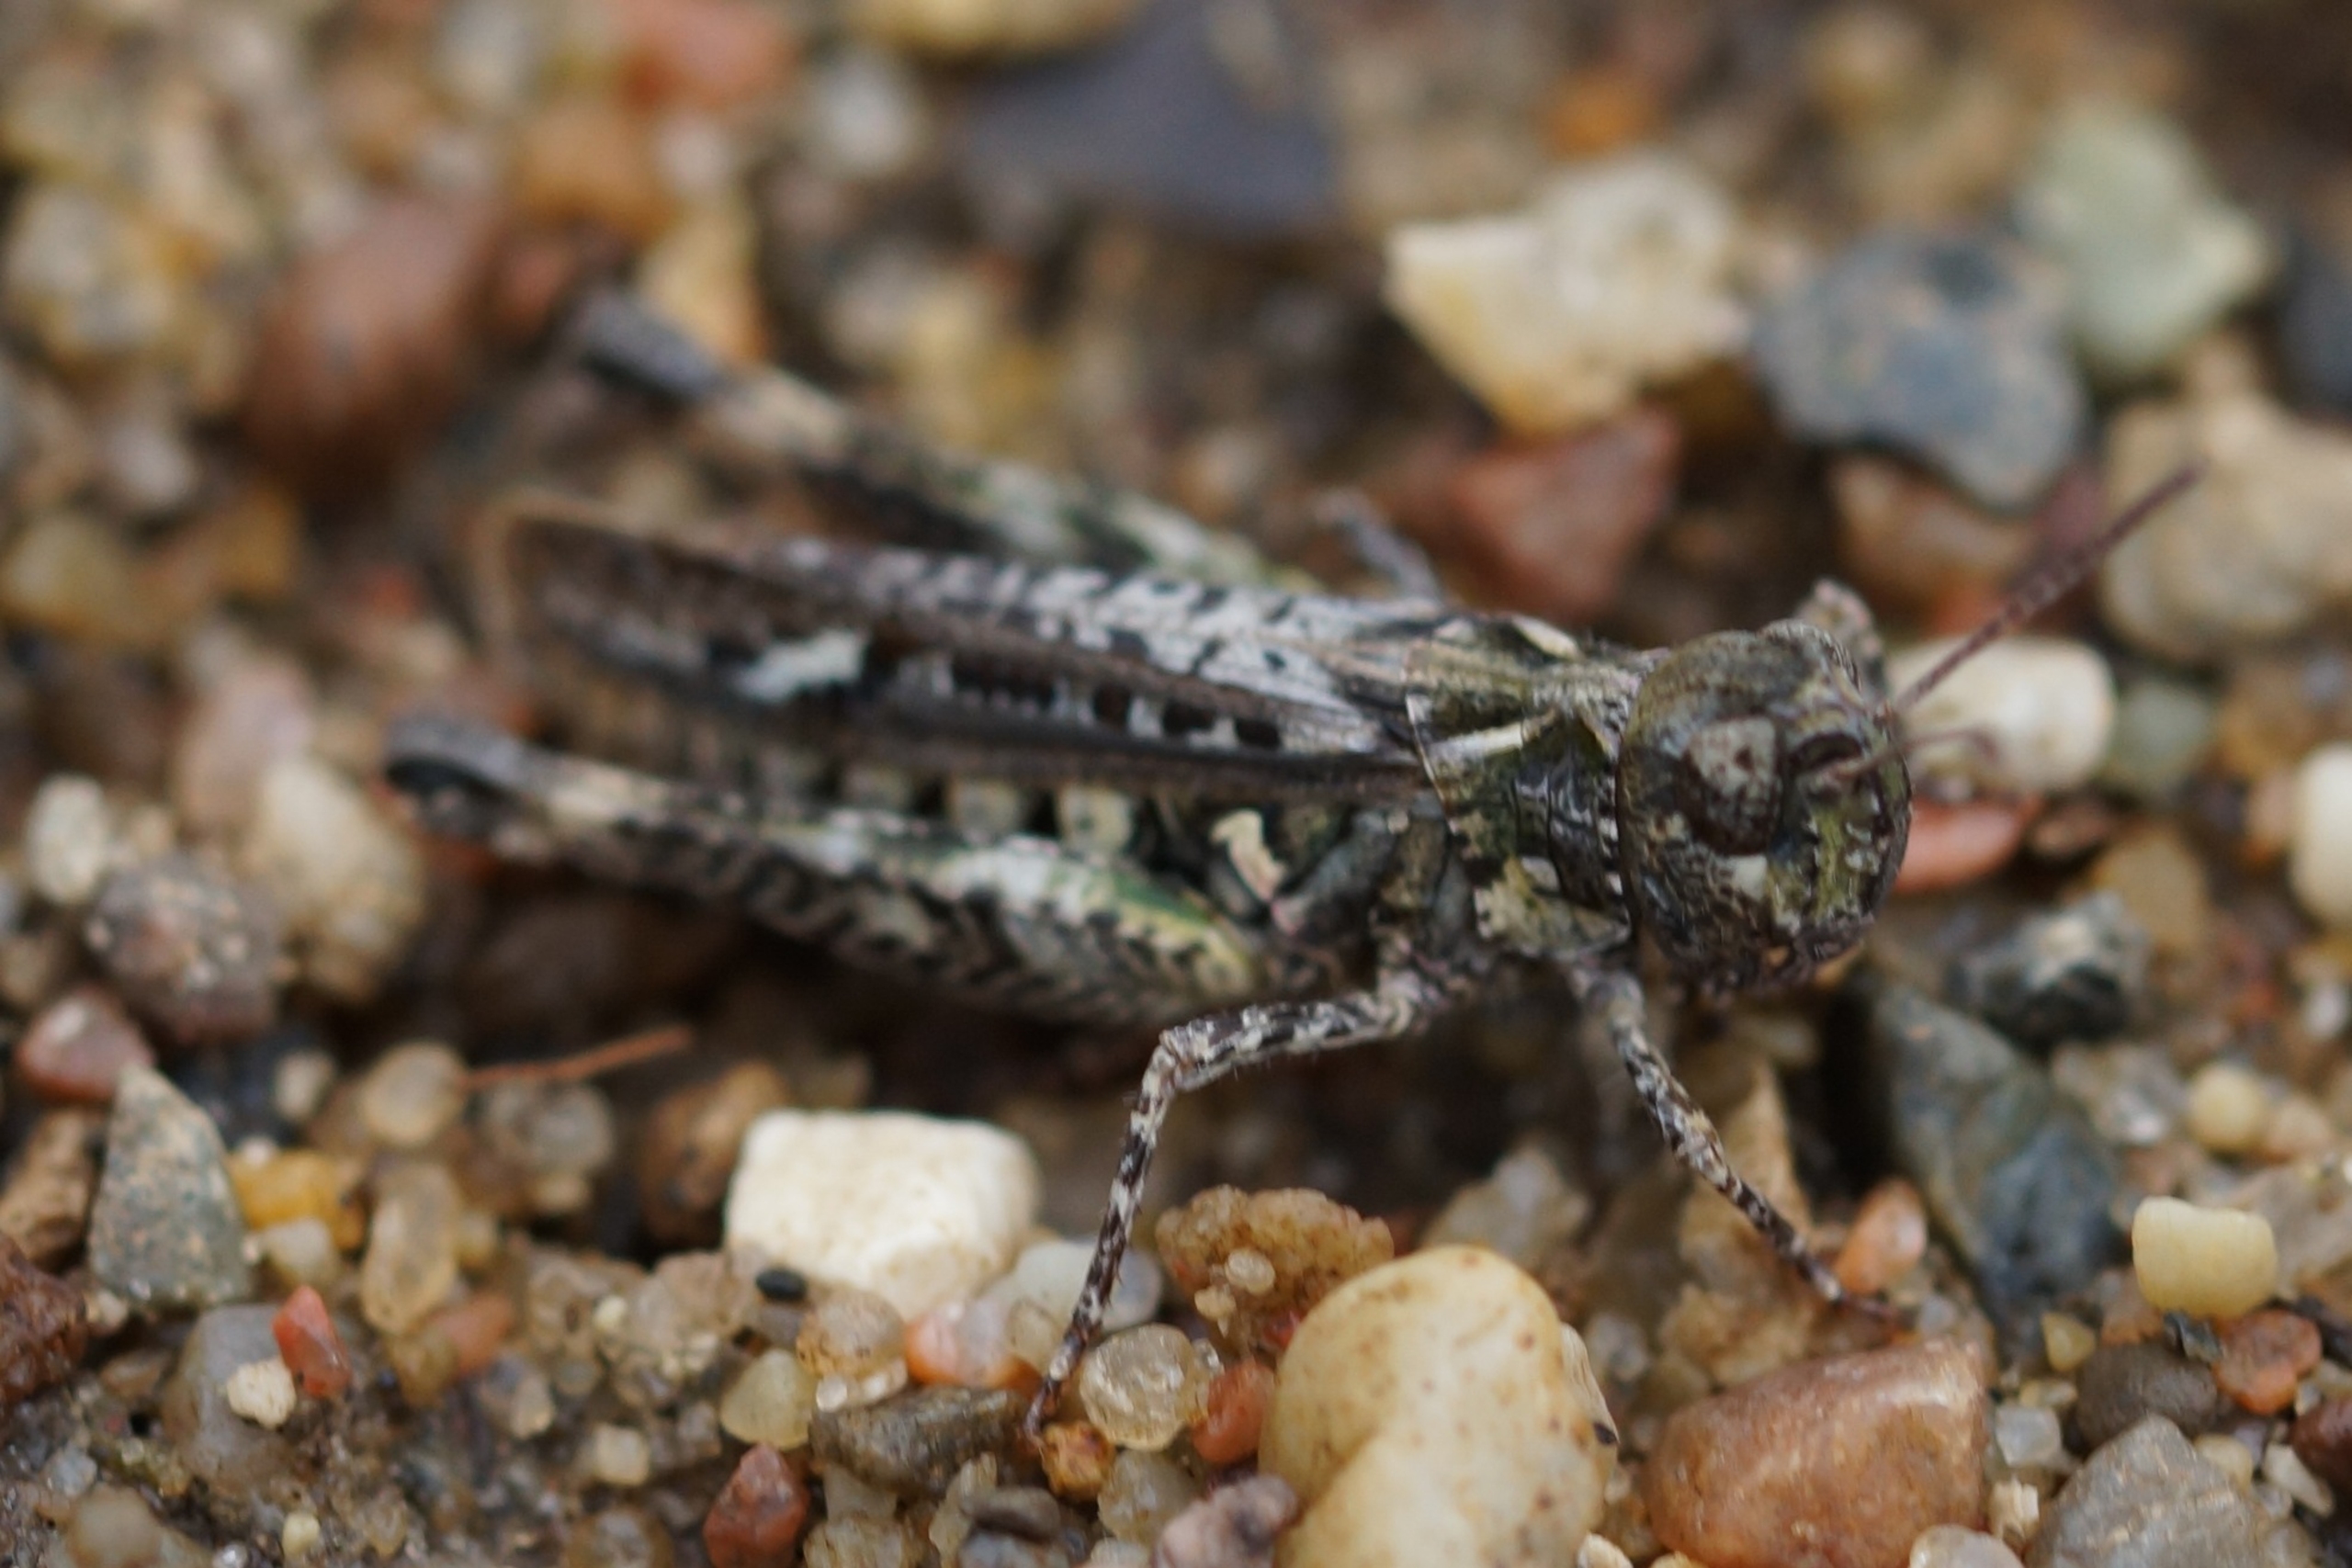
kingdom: Animalia
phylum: Arthropoda
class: Insecta
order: Orthoptera
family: Acrididae
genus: Myrmeleotettix
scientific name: Myrmeleotettix maculatus
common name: Køllegræshoppe
